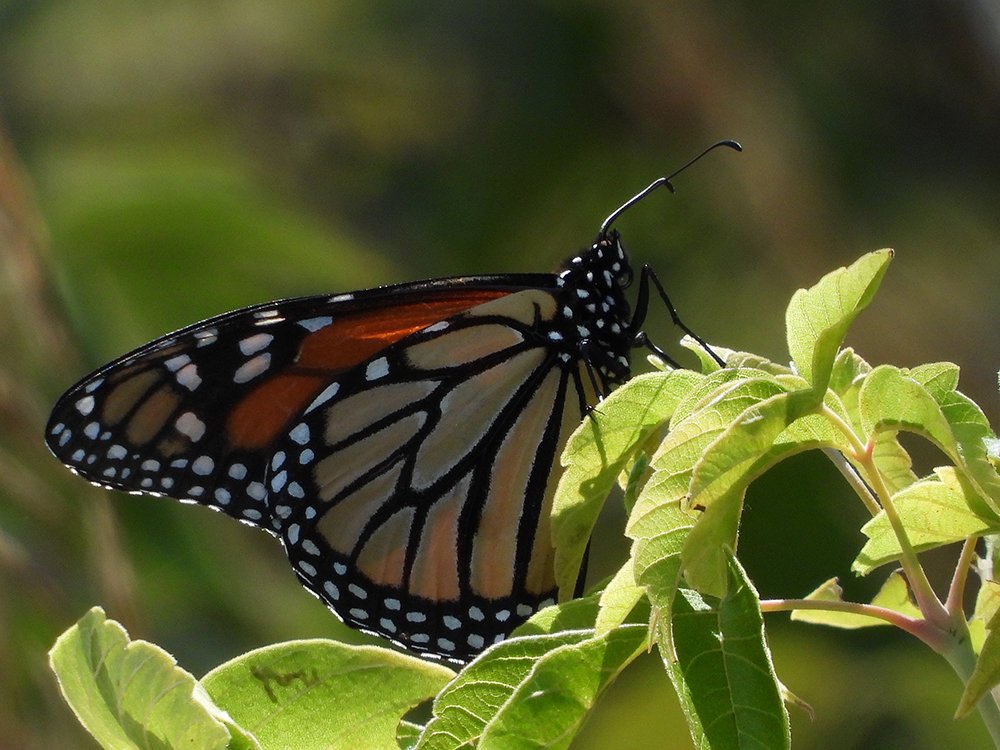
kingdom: Animalia
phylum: Arthropoda
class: Insecta
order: Lepidoptera
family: Nymphalidae
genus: Danaus
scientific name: Danaus plexippus
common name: Monarch
